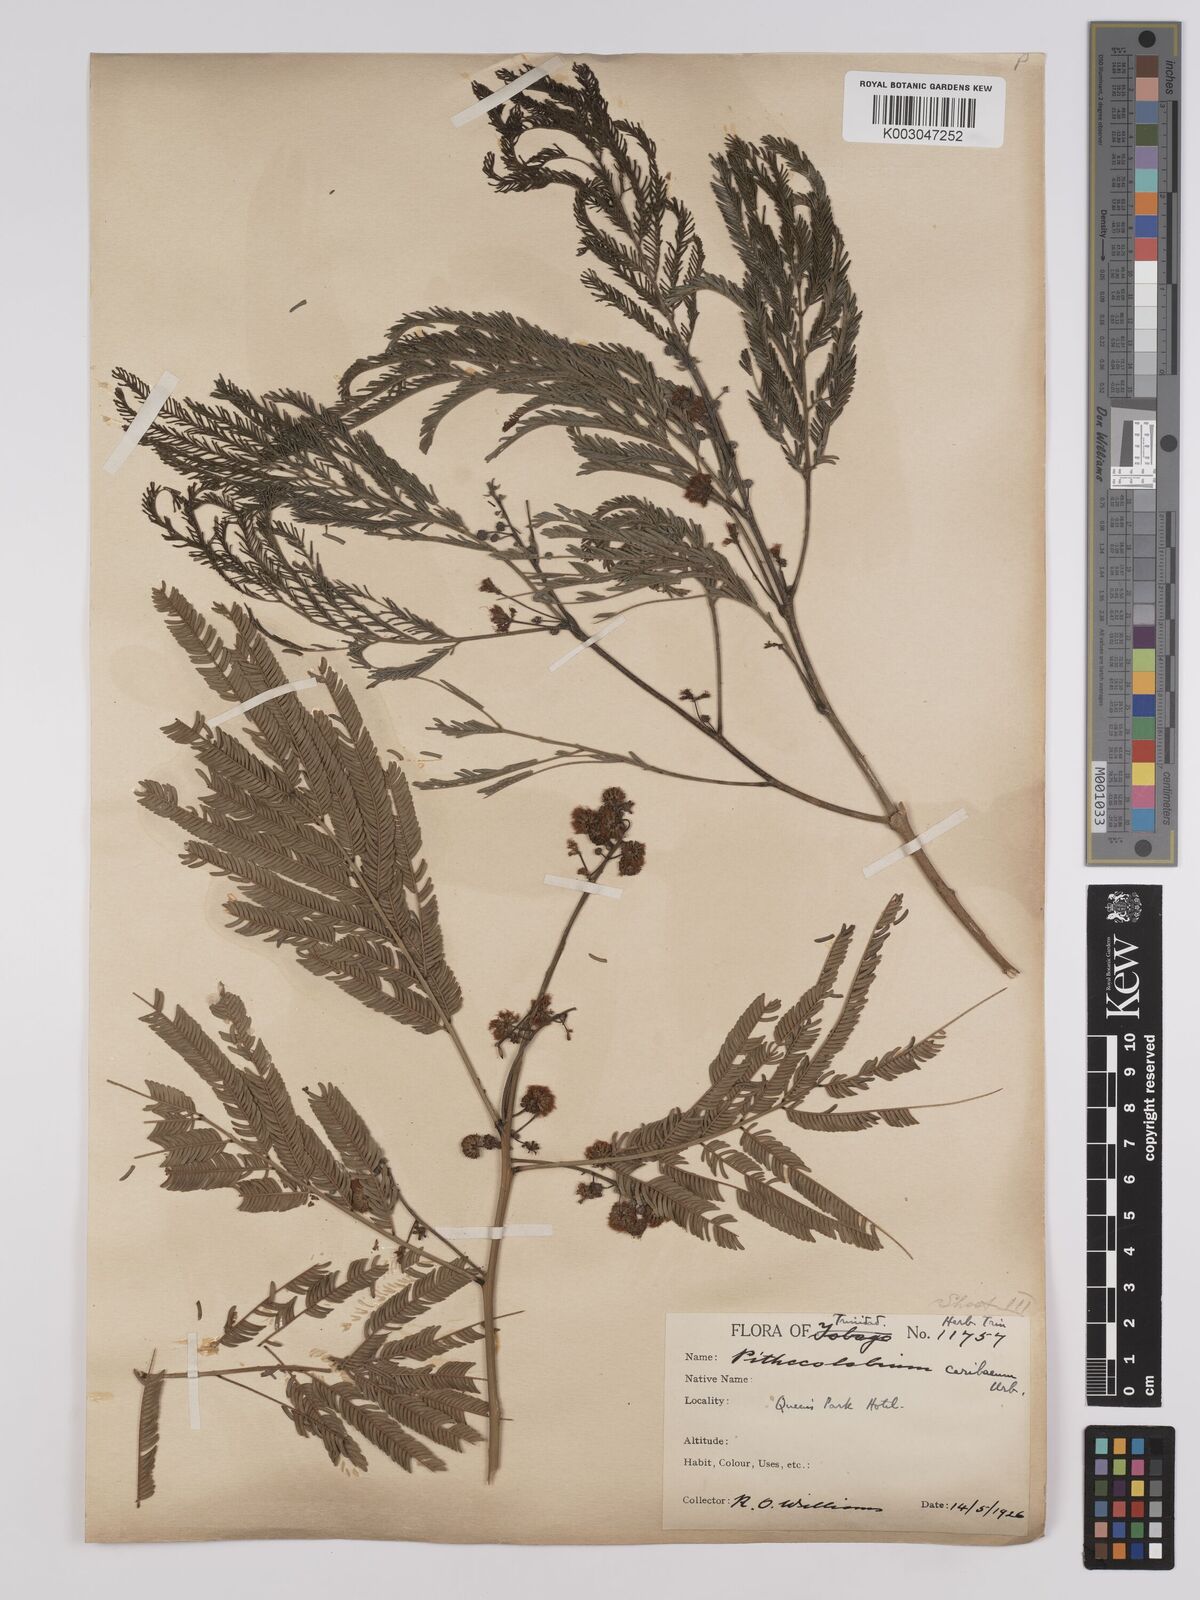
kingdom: Plantae
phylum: Tracheophyta
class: Magnoliopsida
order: Fabales
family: Fabaceae
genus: Albizia
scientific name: Albizia niopoides
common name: Silk tree
